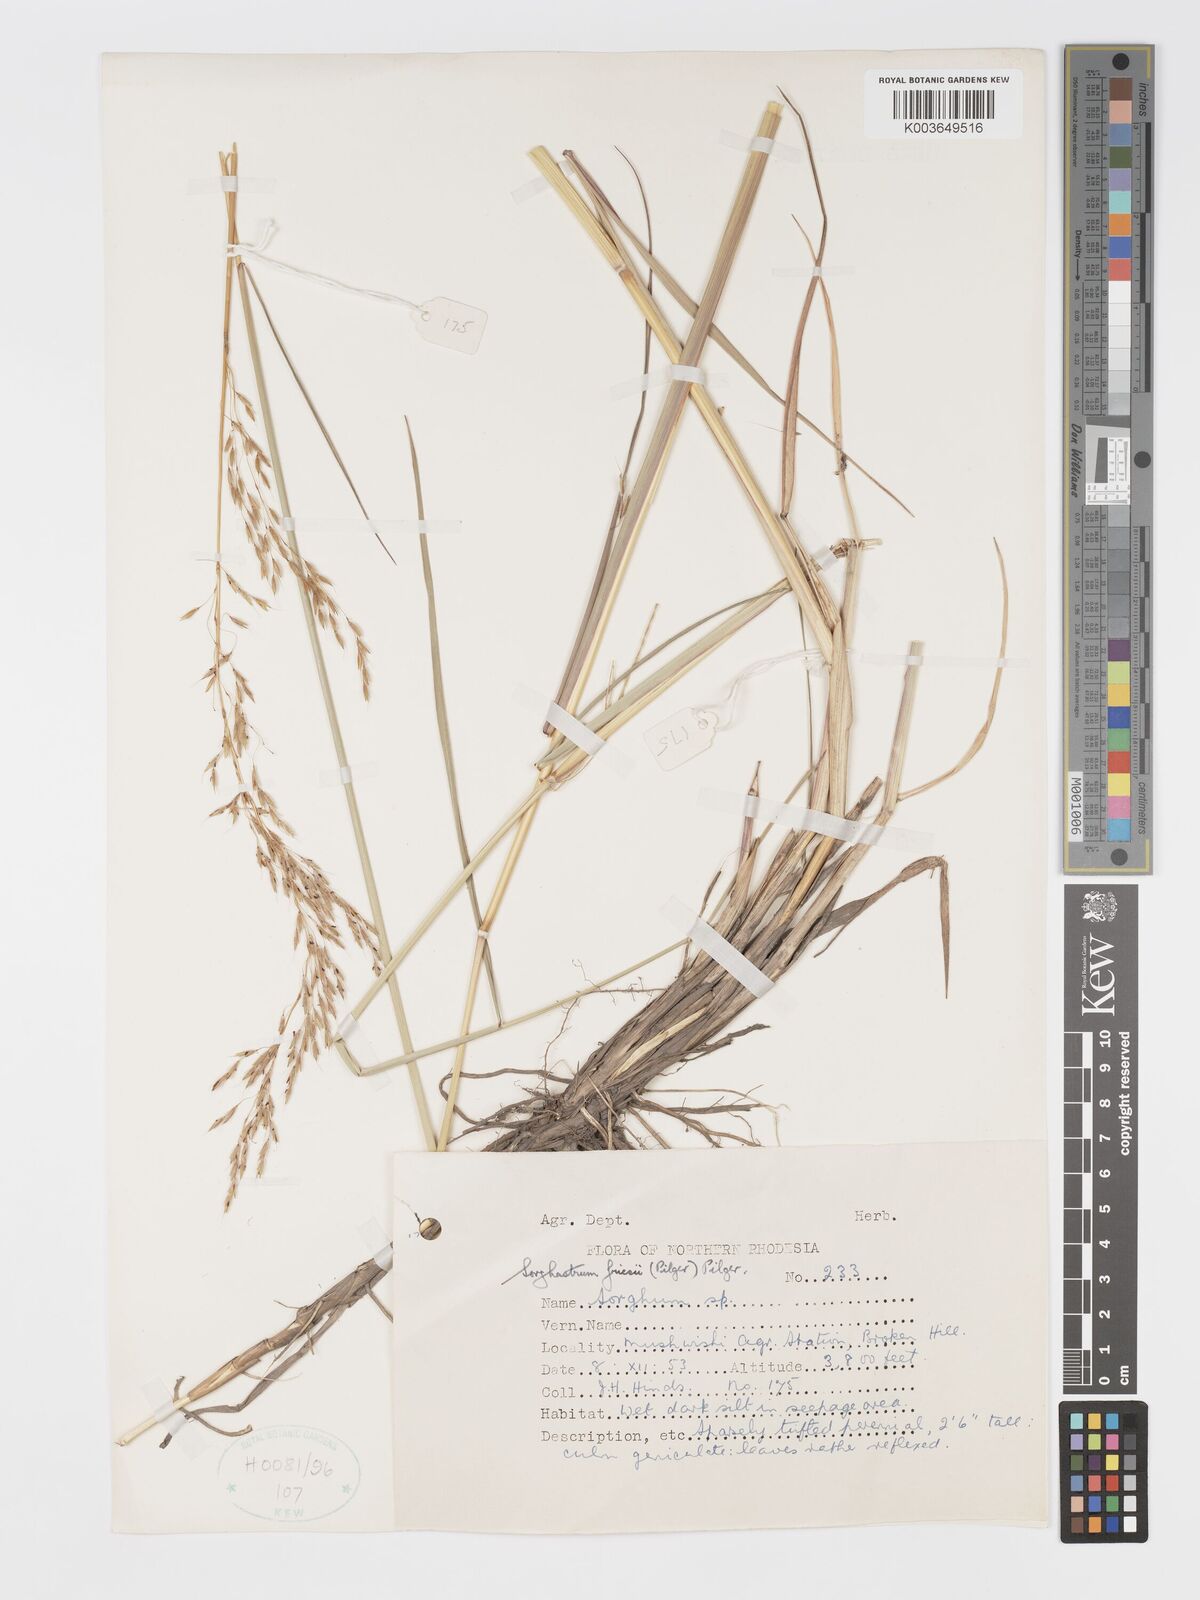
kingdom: Plantae
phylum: Tracheophyta
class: Liliopsida
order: Poales
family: Poaceae
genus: Sorghastrum
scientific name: Sorghastrum nudipes
